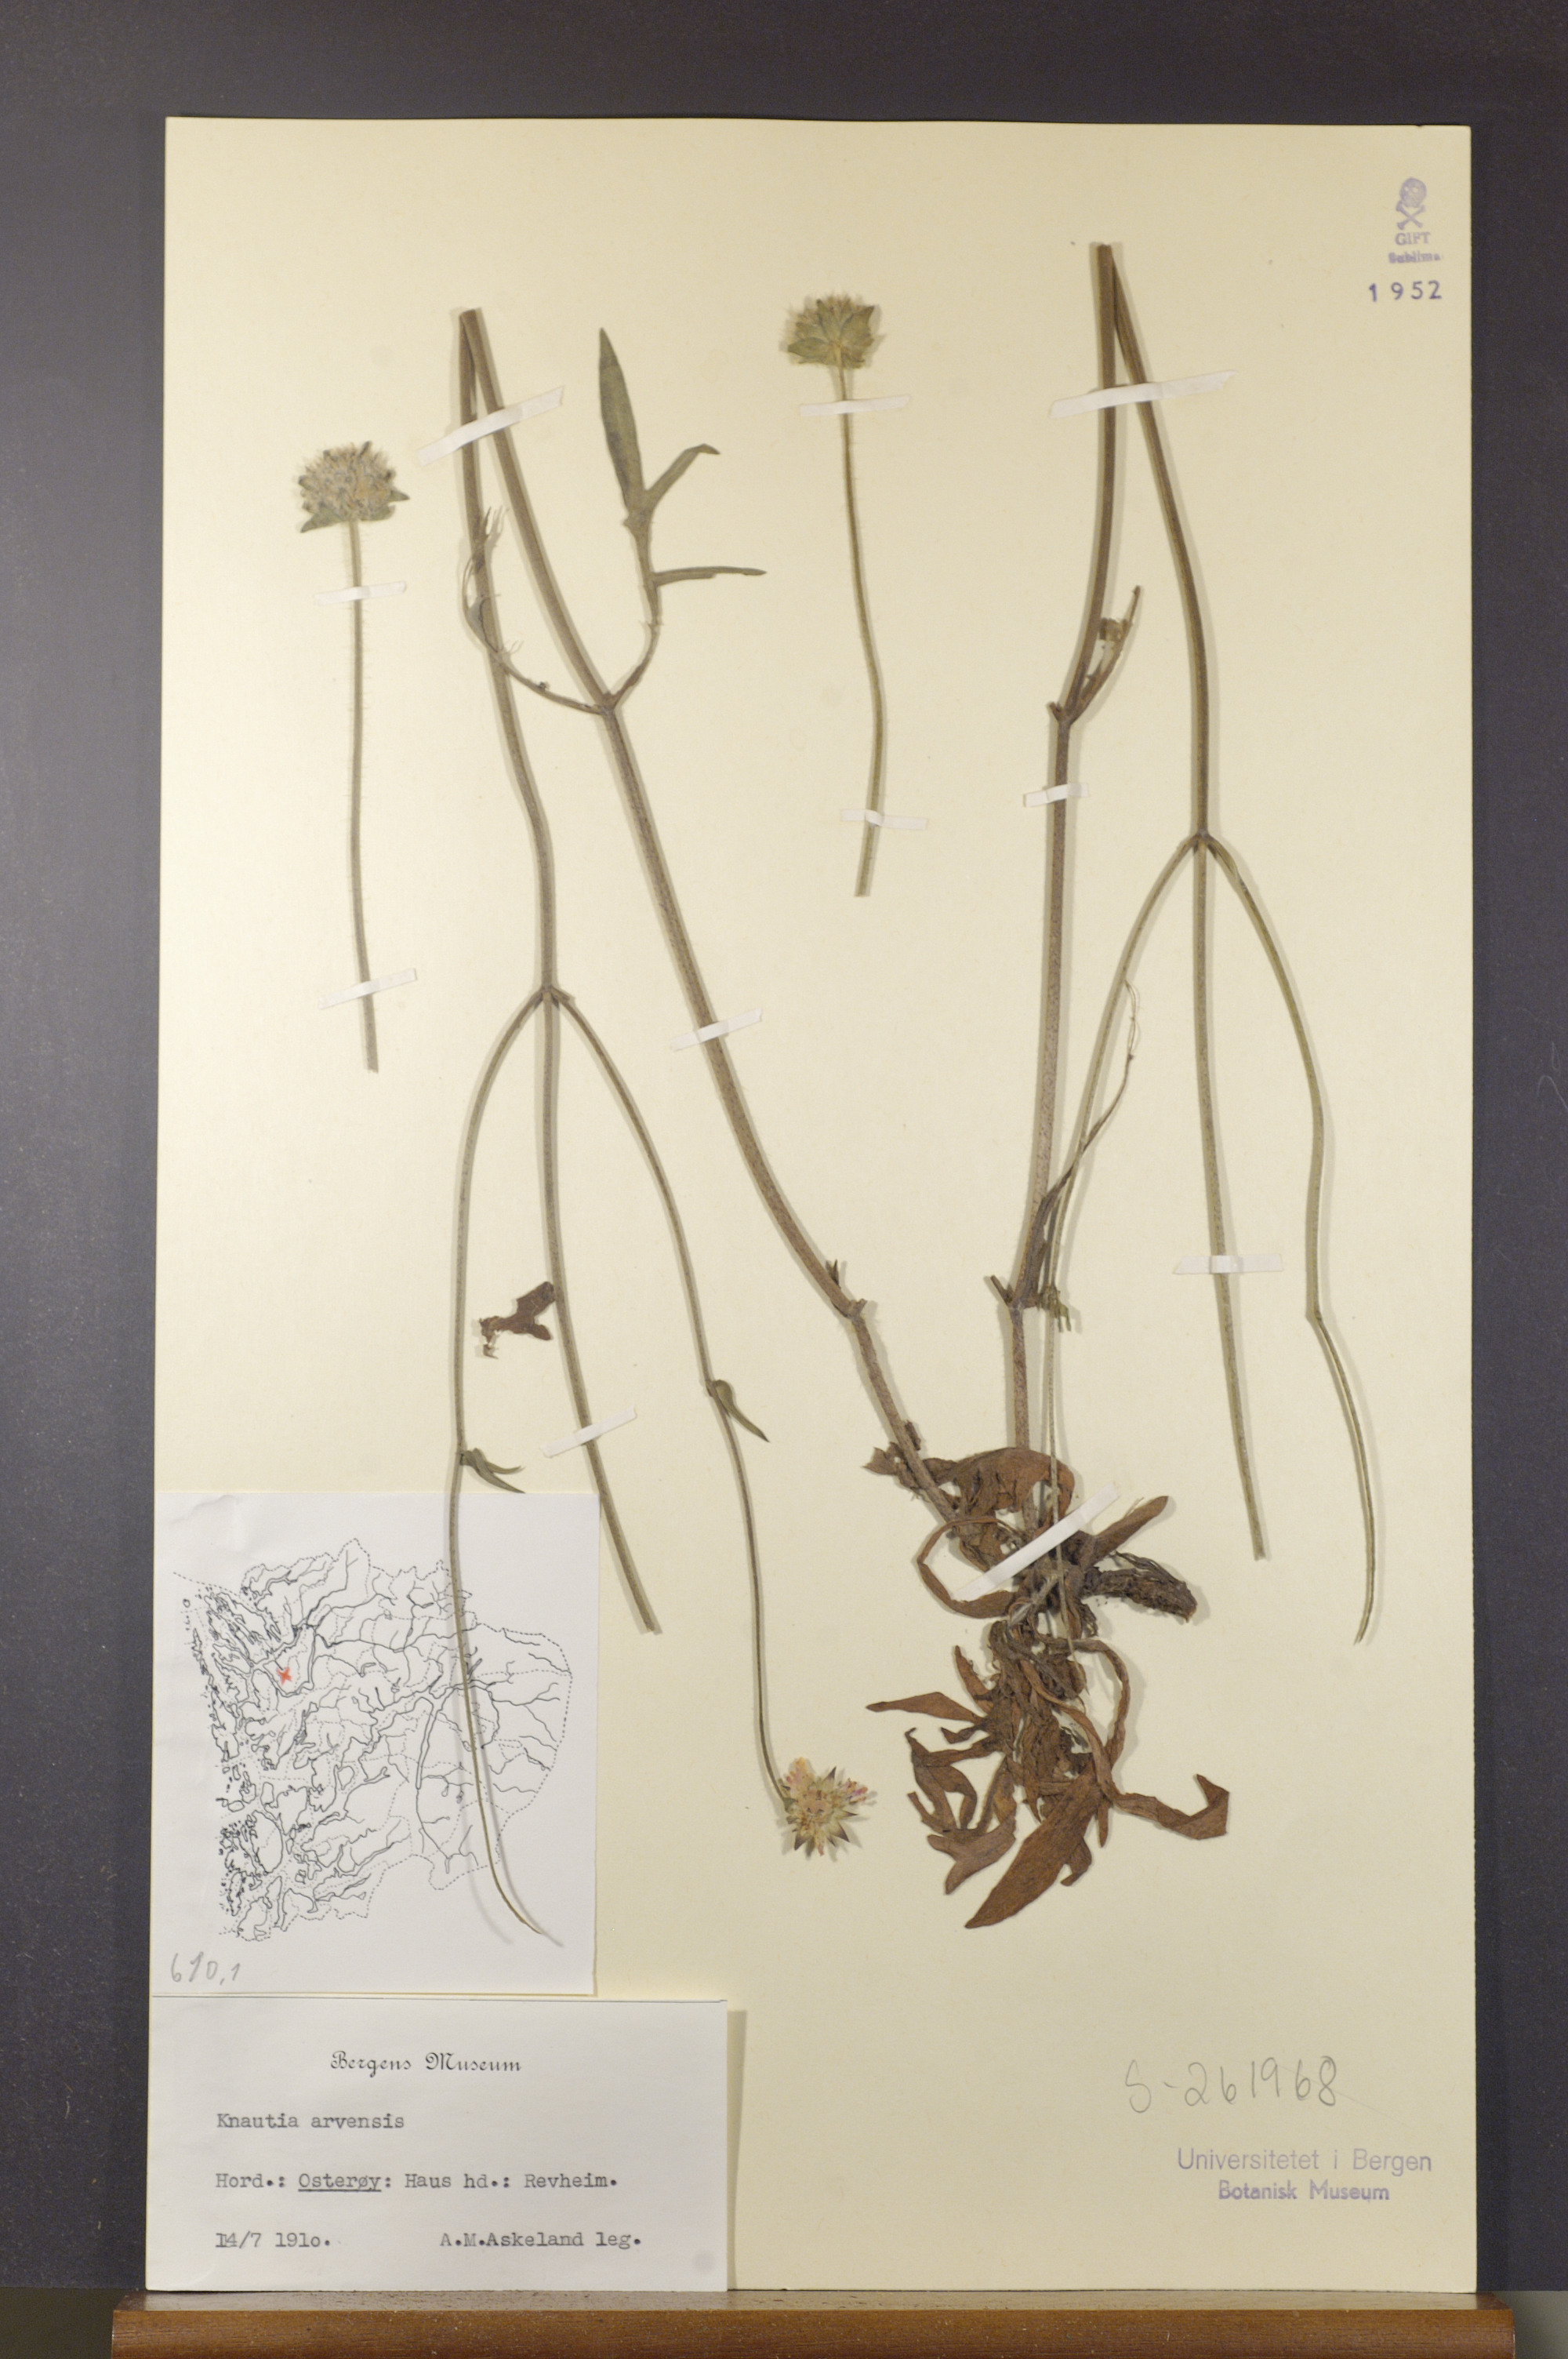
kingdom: Plantae
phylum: Tracheophyta
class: Magnoliopsida
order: Dipsacales
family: Caprifoliaceae
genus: Knautia
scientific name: Knautia arvensis
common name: Field scabiosa
